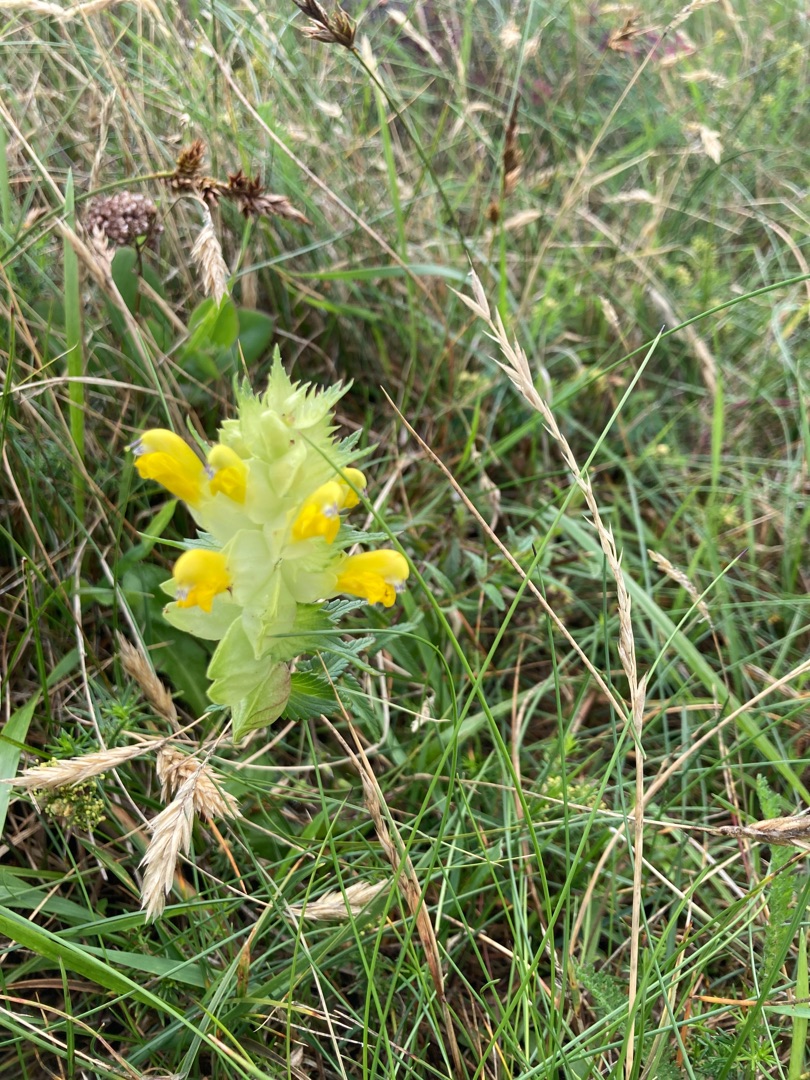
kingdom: Plantae
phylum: Tracheophyta
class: Magnoliopsida
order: Lamiales
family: Orobanchaceae
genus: Rhinanthus
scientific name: Rhinanthus
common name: Stor skjaller
